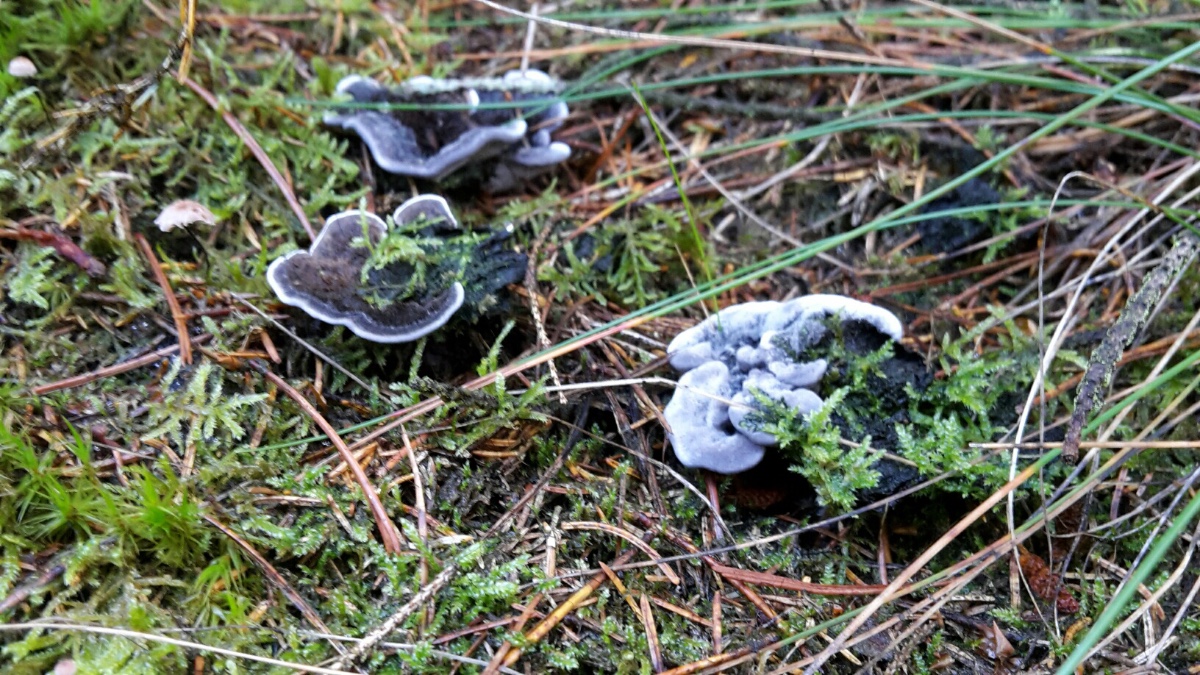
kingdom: Fungi
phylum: Basidiomycota
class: Agaricomycetes
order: Thelephorales
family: Thelephoraceae
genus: Phellodon
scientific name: Phellodon
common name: mørk duftpigsvamp
